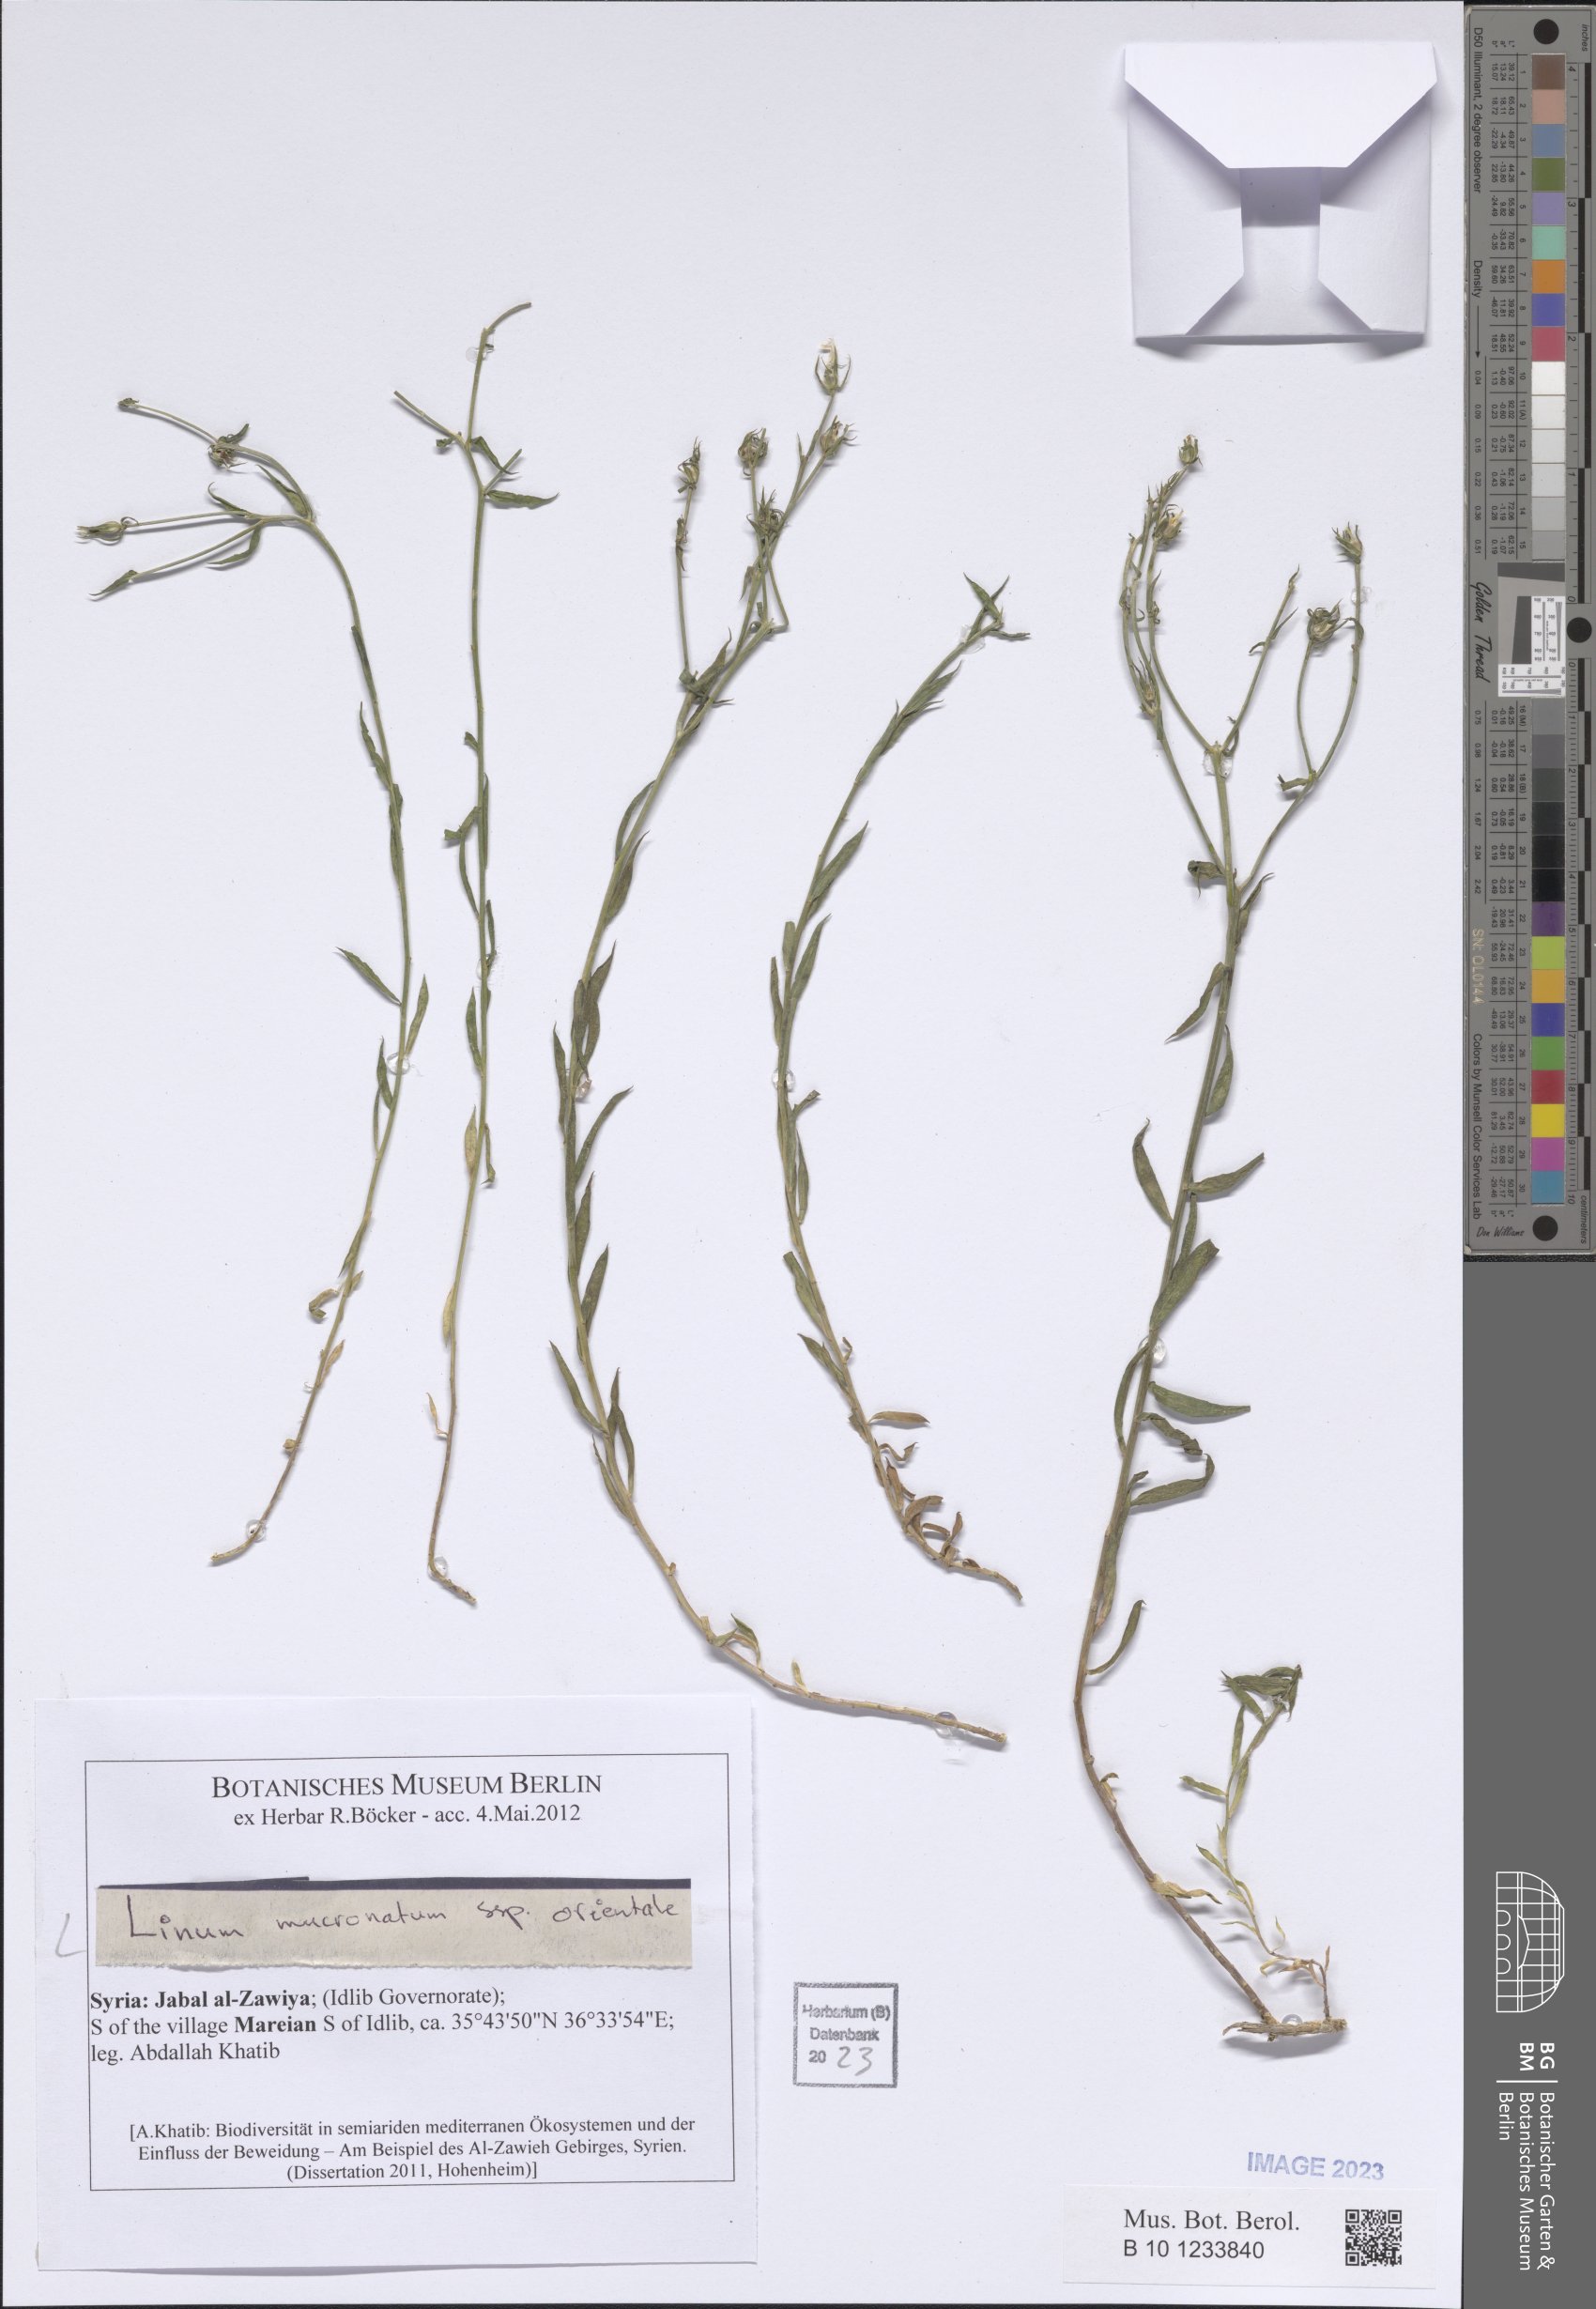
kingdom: Plantae
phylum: Tracheophyta
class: Magnoliopsida
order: Malpighiales
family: Linaceae
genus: Linum
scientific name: Linum mucronatum
